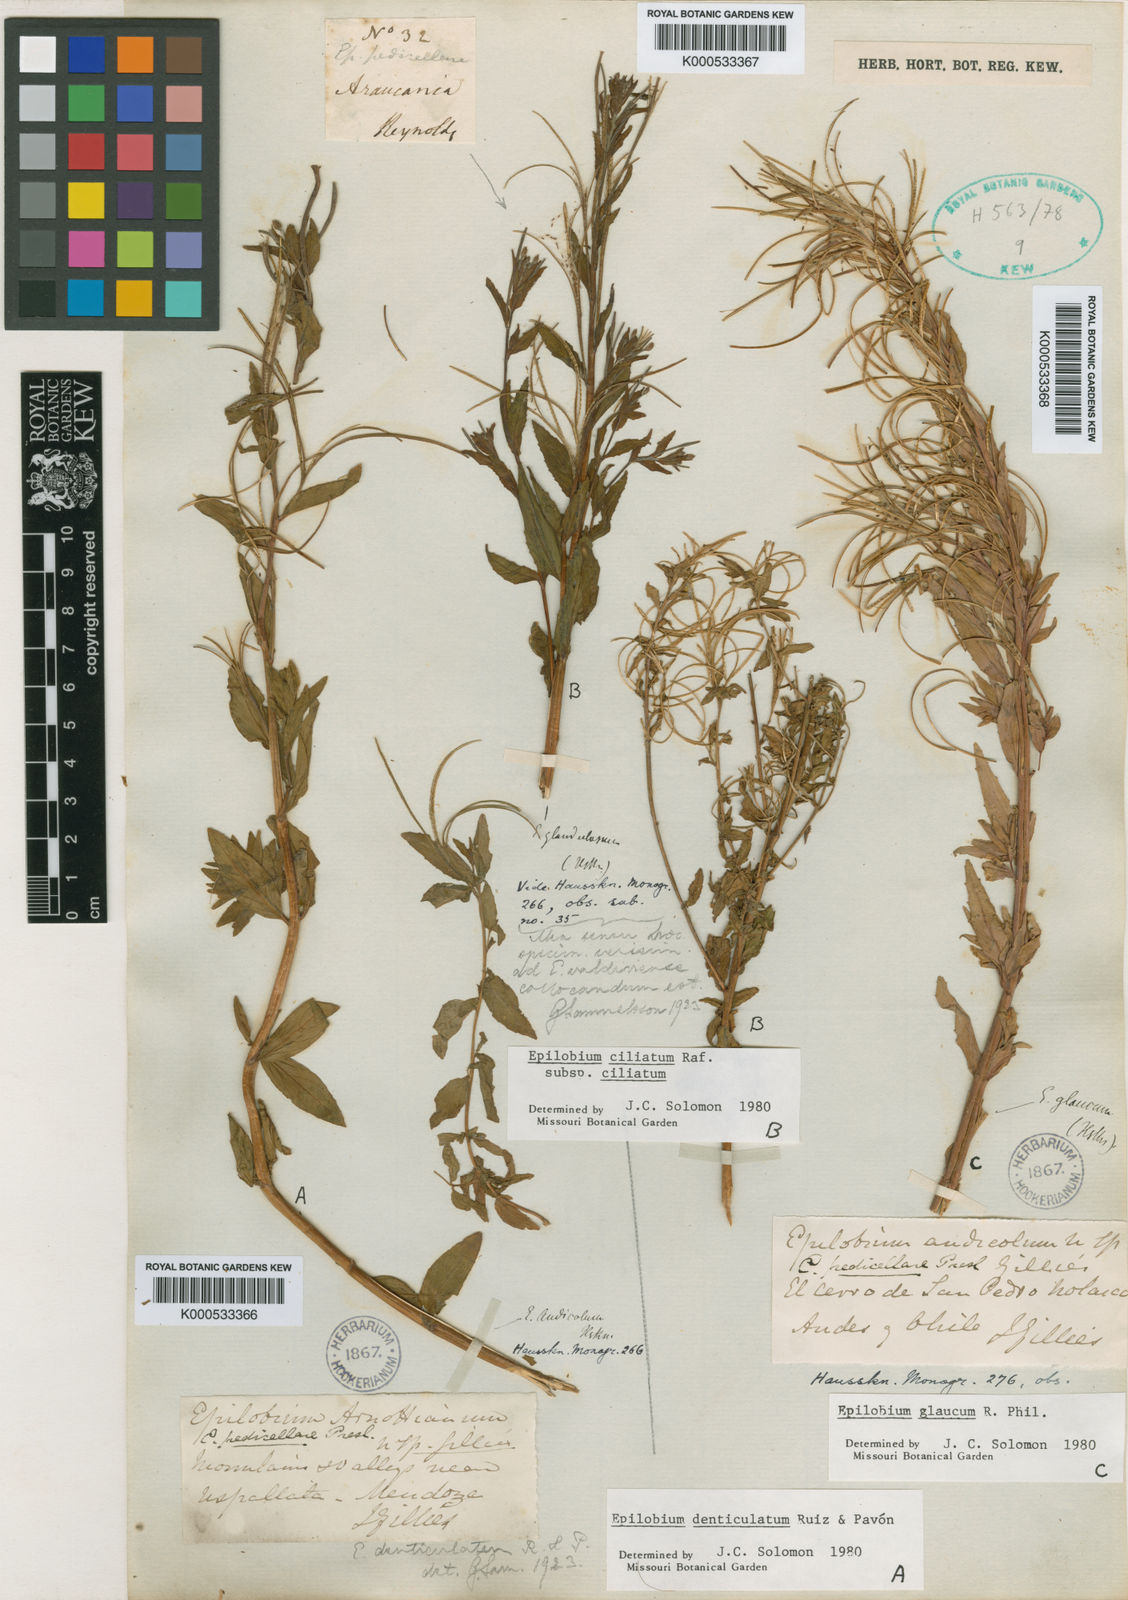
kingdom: Plantae
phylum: Tracheophyta
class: Magnoliopsida
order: Myrtales
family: Onagraceae
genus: Epilobium
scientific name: Epilobium denticulatum
